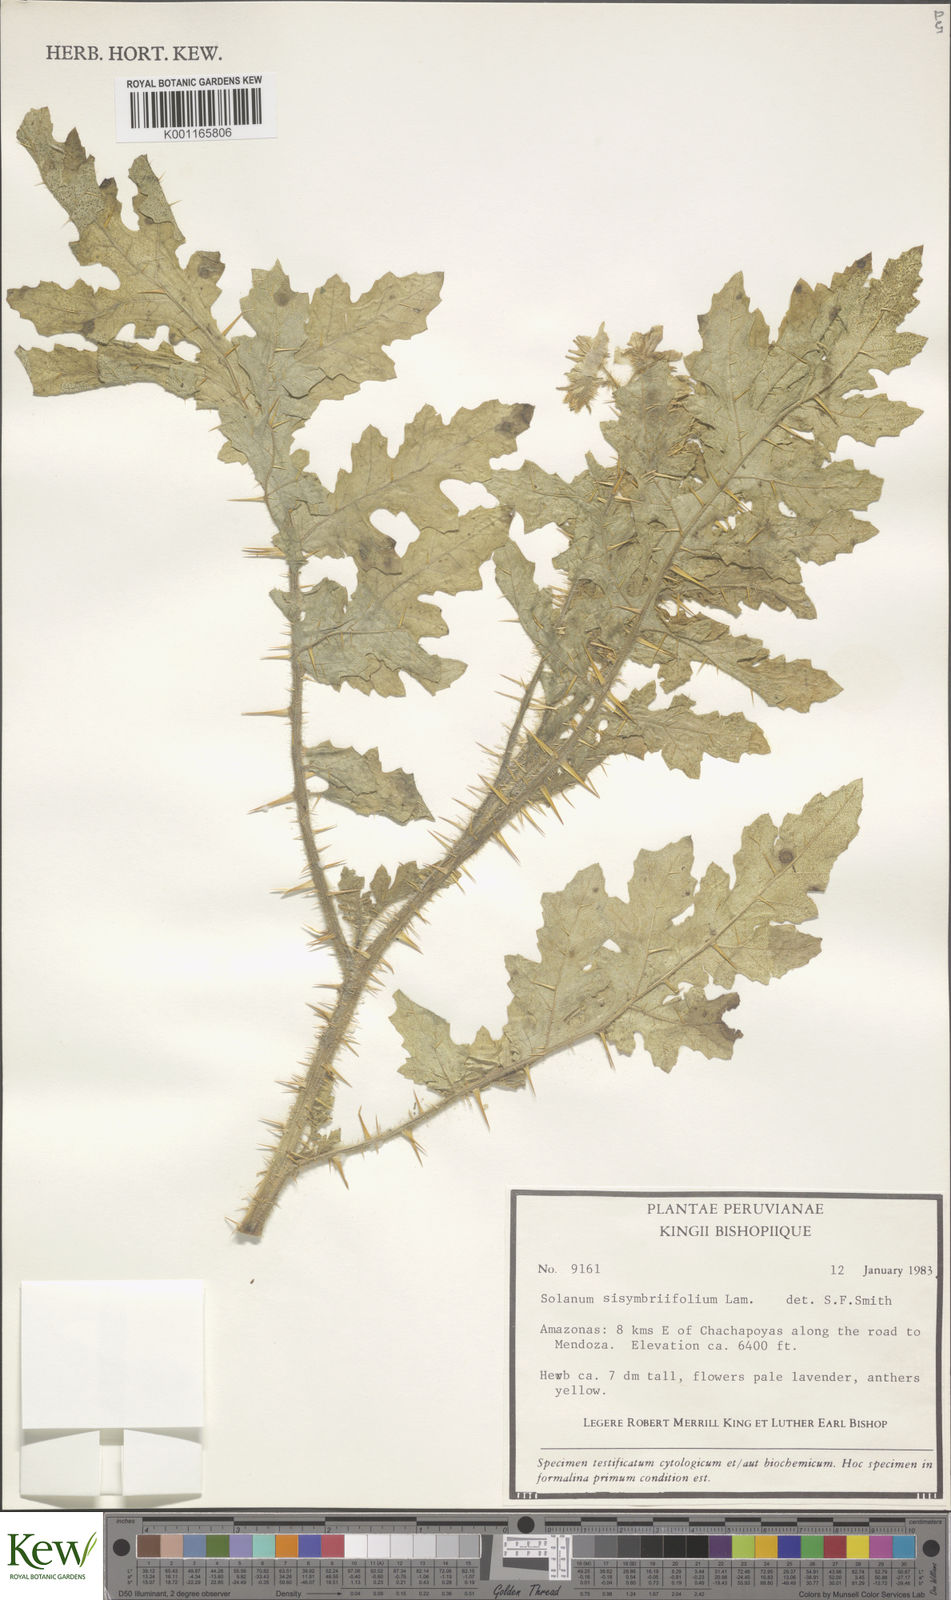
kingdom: Plantae
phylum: Tracheophyta
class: Magnoliopsida
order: Solanales
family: Solanaceae
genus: Solanum
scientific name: Solanum sisymbriifolium
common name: Red buffalo-bur
